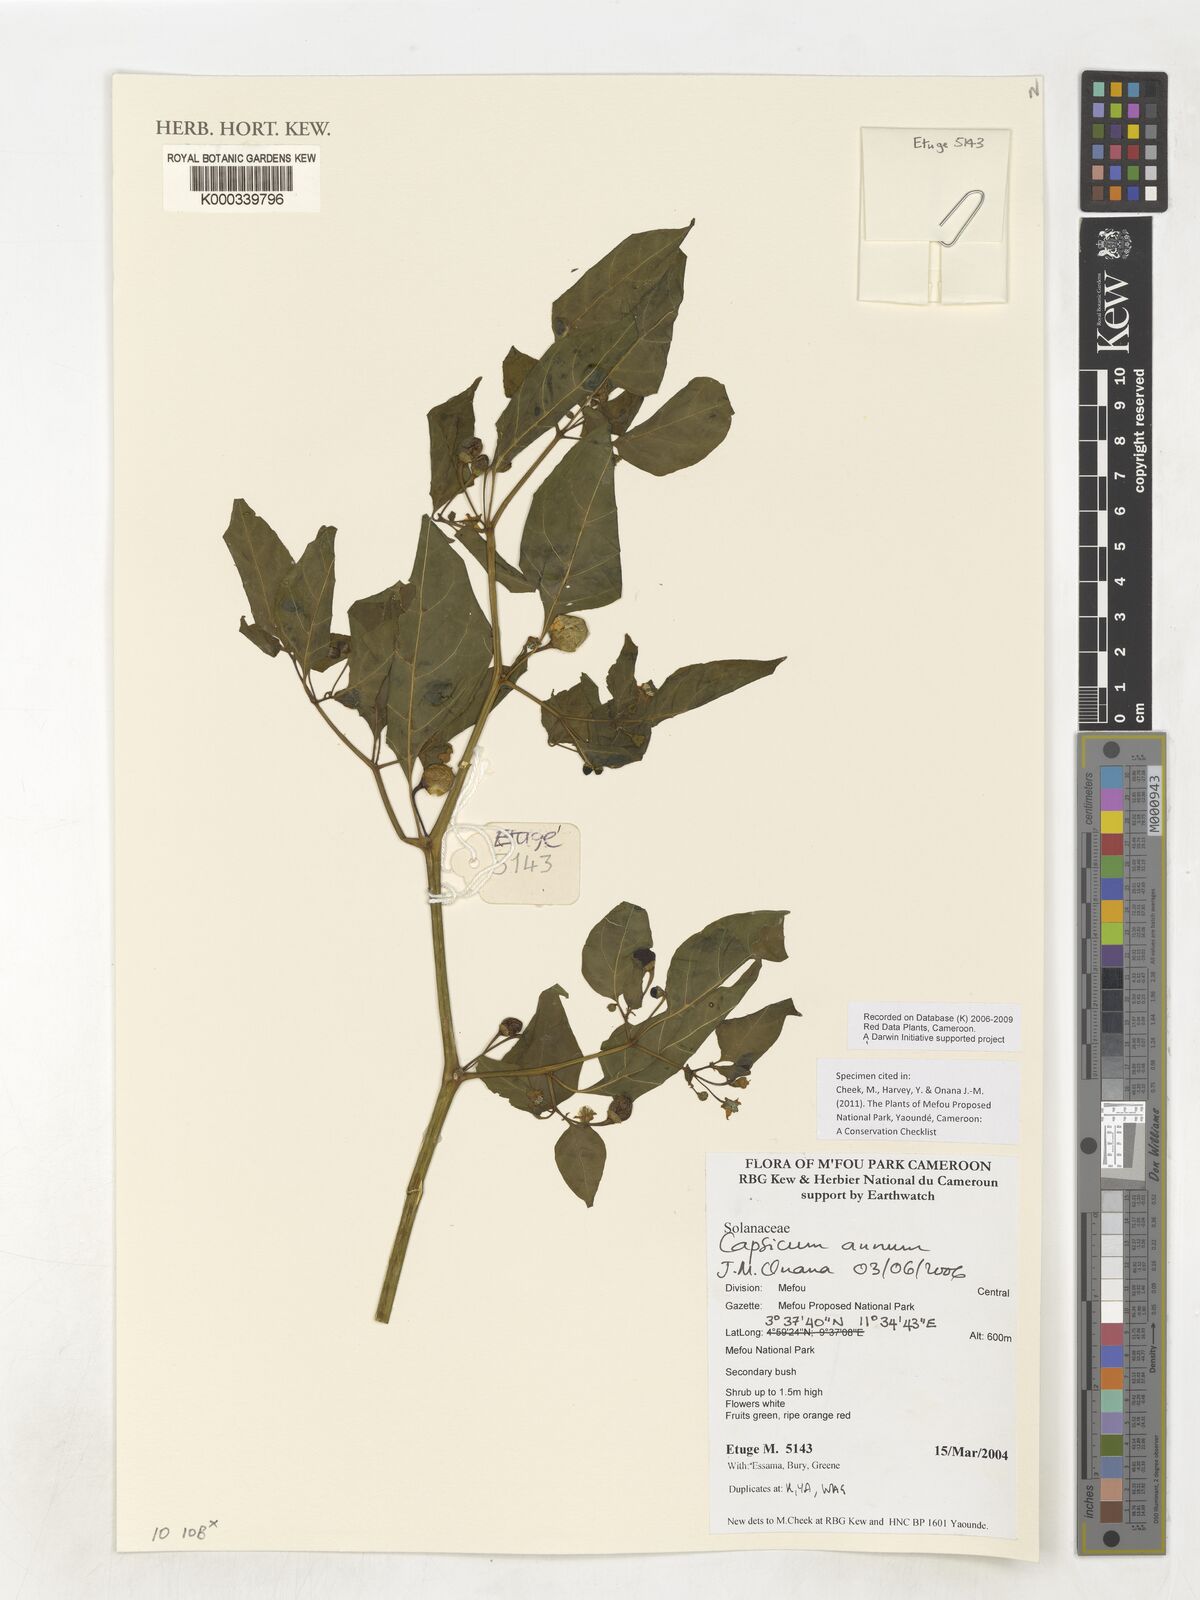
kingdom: Plantae
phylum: Tracheophyta
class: Magnoliopsida
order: Solanales
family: Solanaceae
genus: Capsicum
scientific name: Capsicum annuum
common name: Sweet pepper
